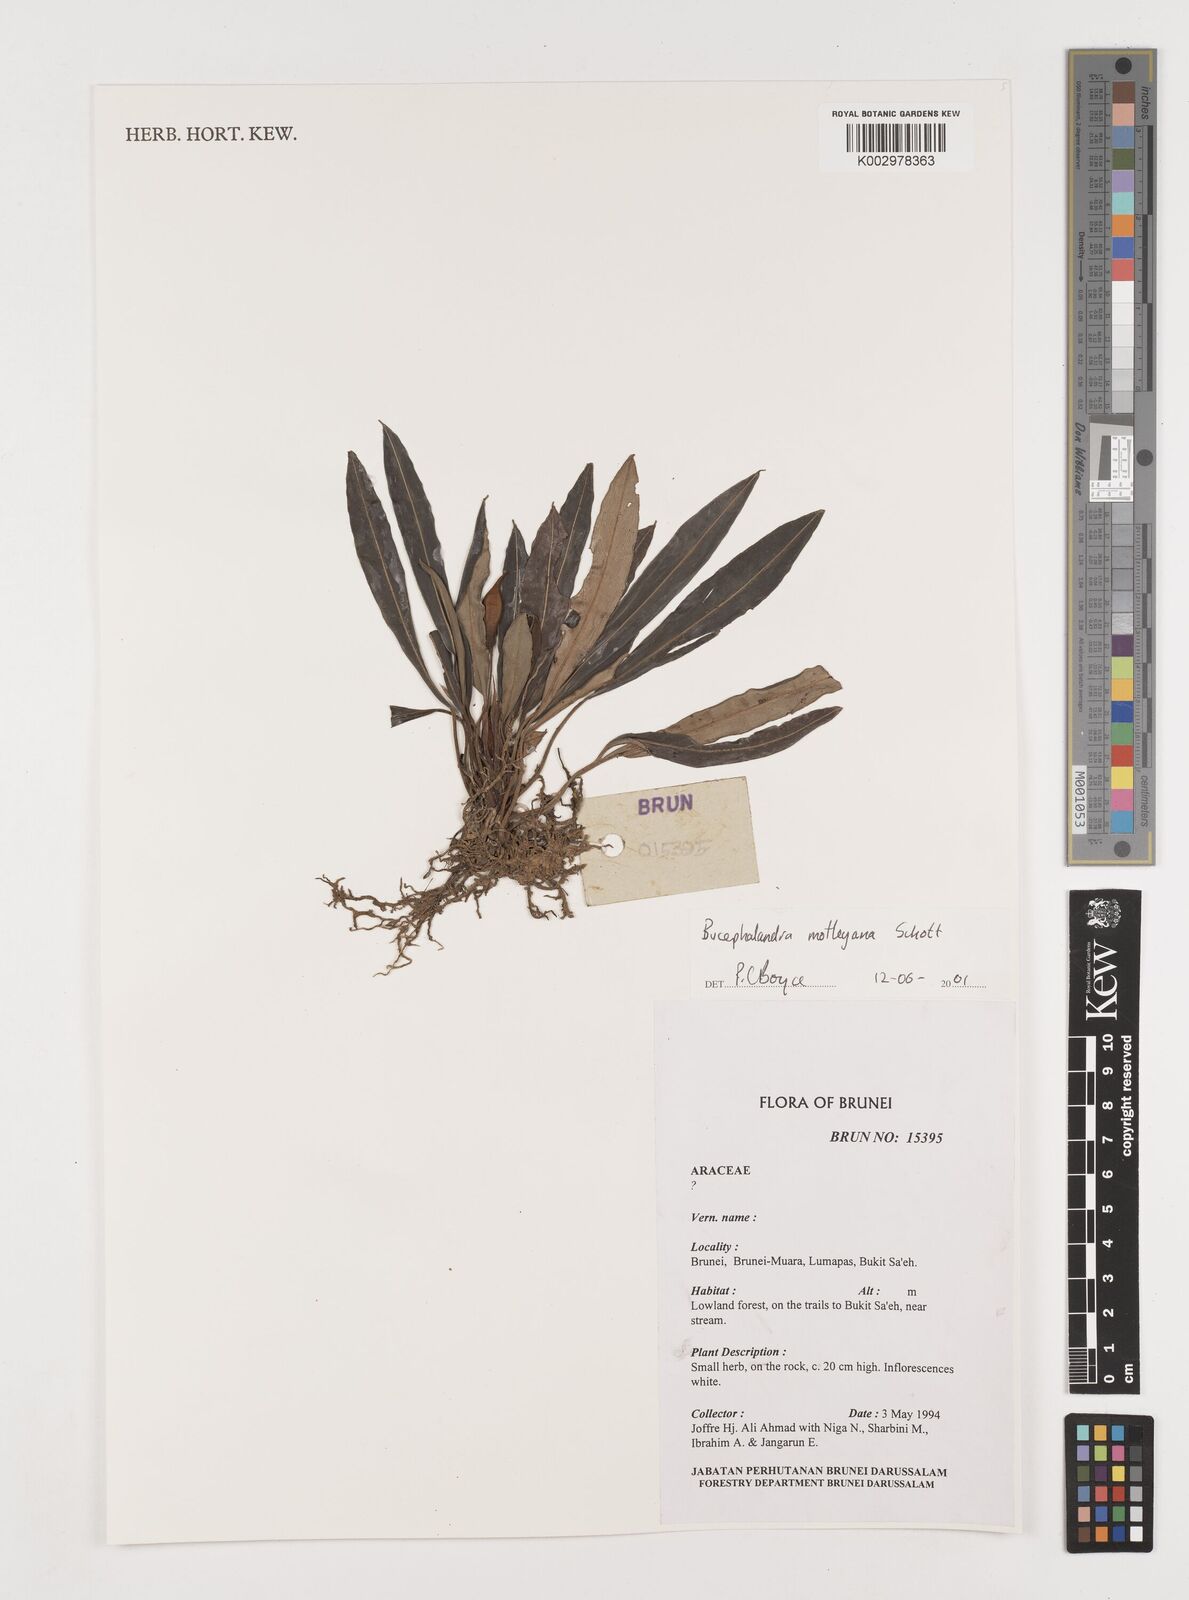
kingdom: Plantae
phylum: Tracheophyta
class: Liliopsida
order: Alismatales
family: Araceae
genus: Bucephalandra
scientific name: Bucephalandra motleyana
